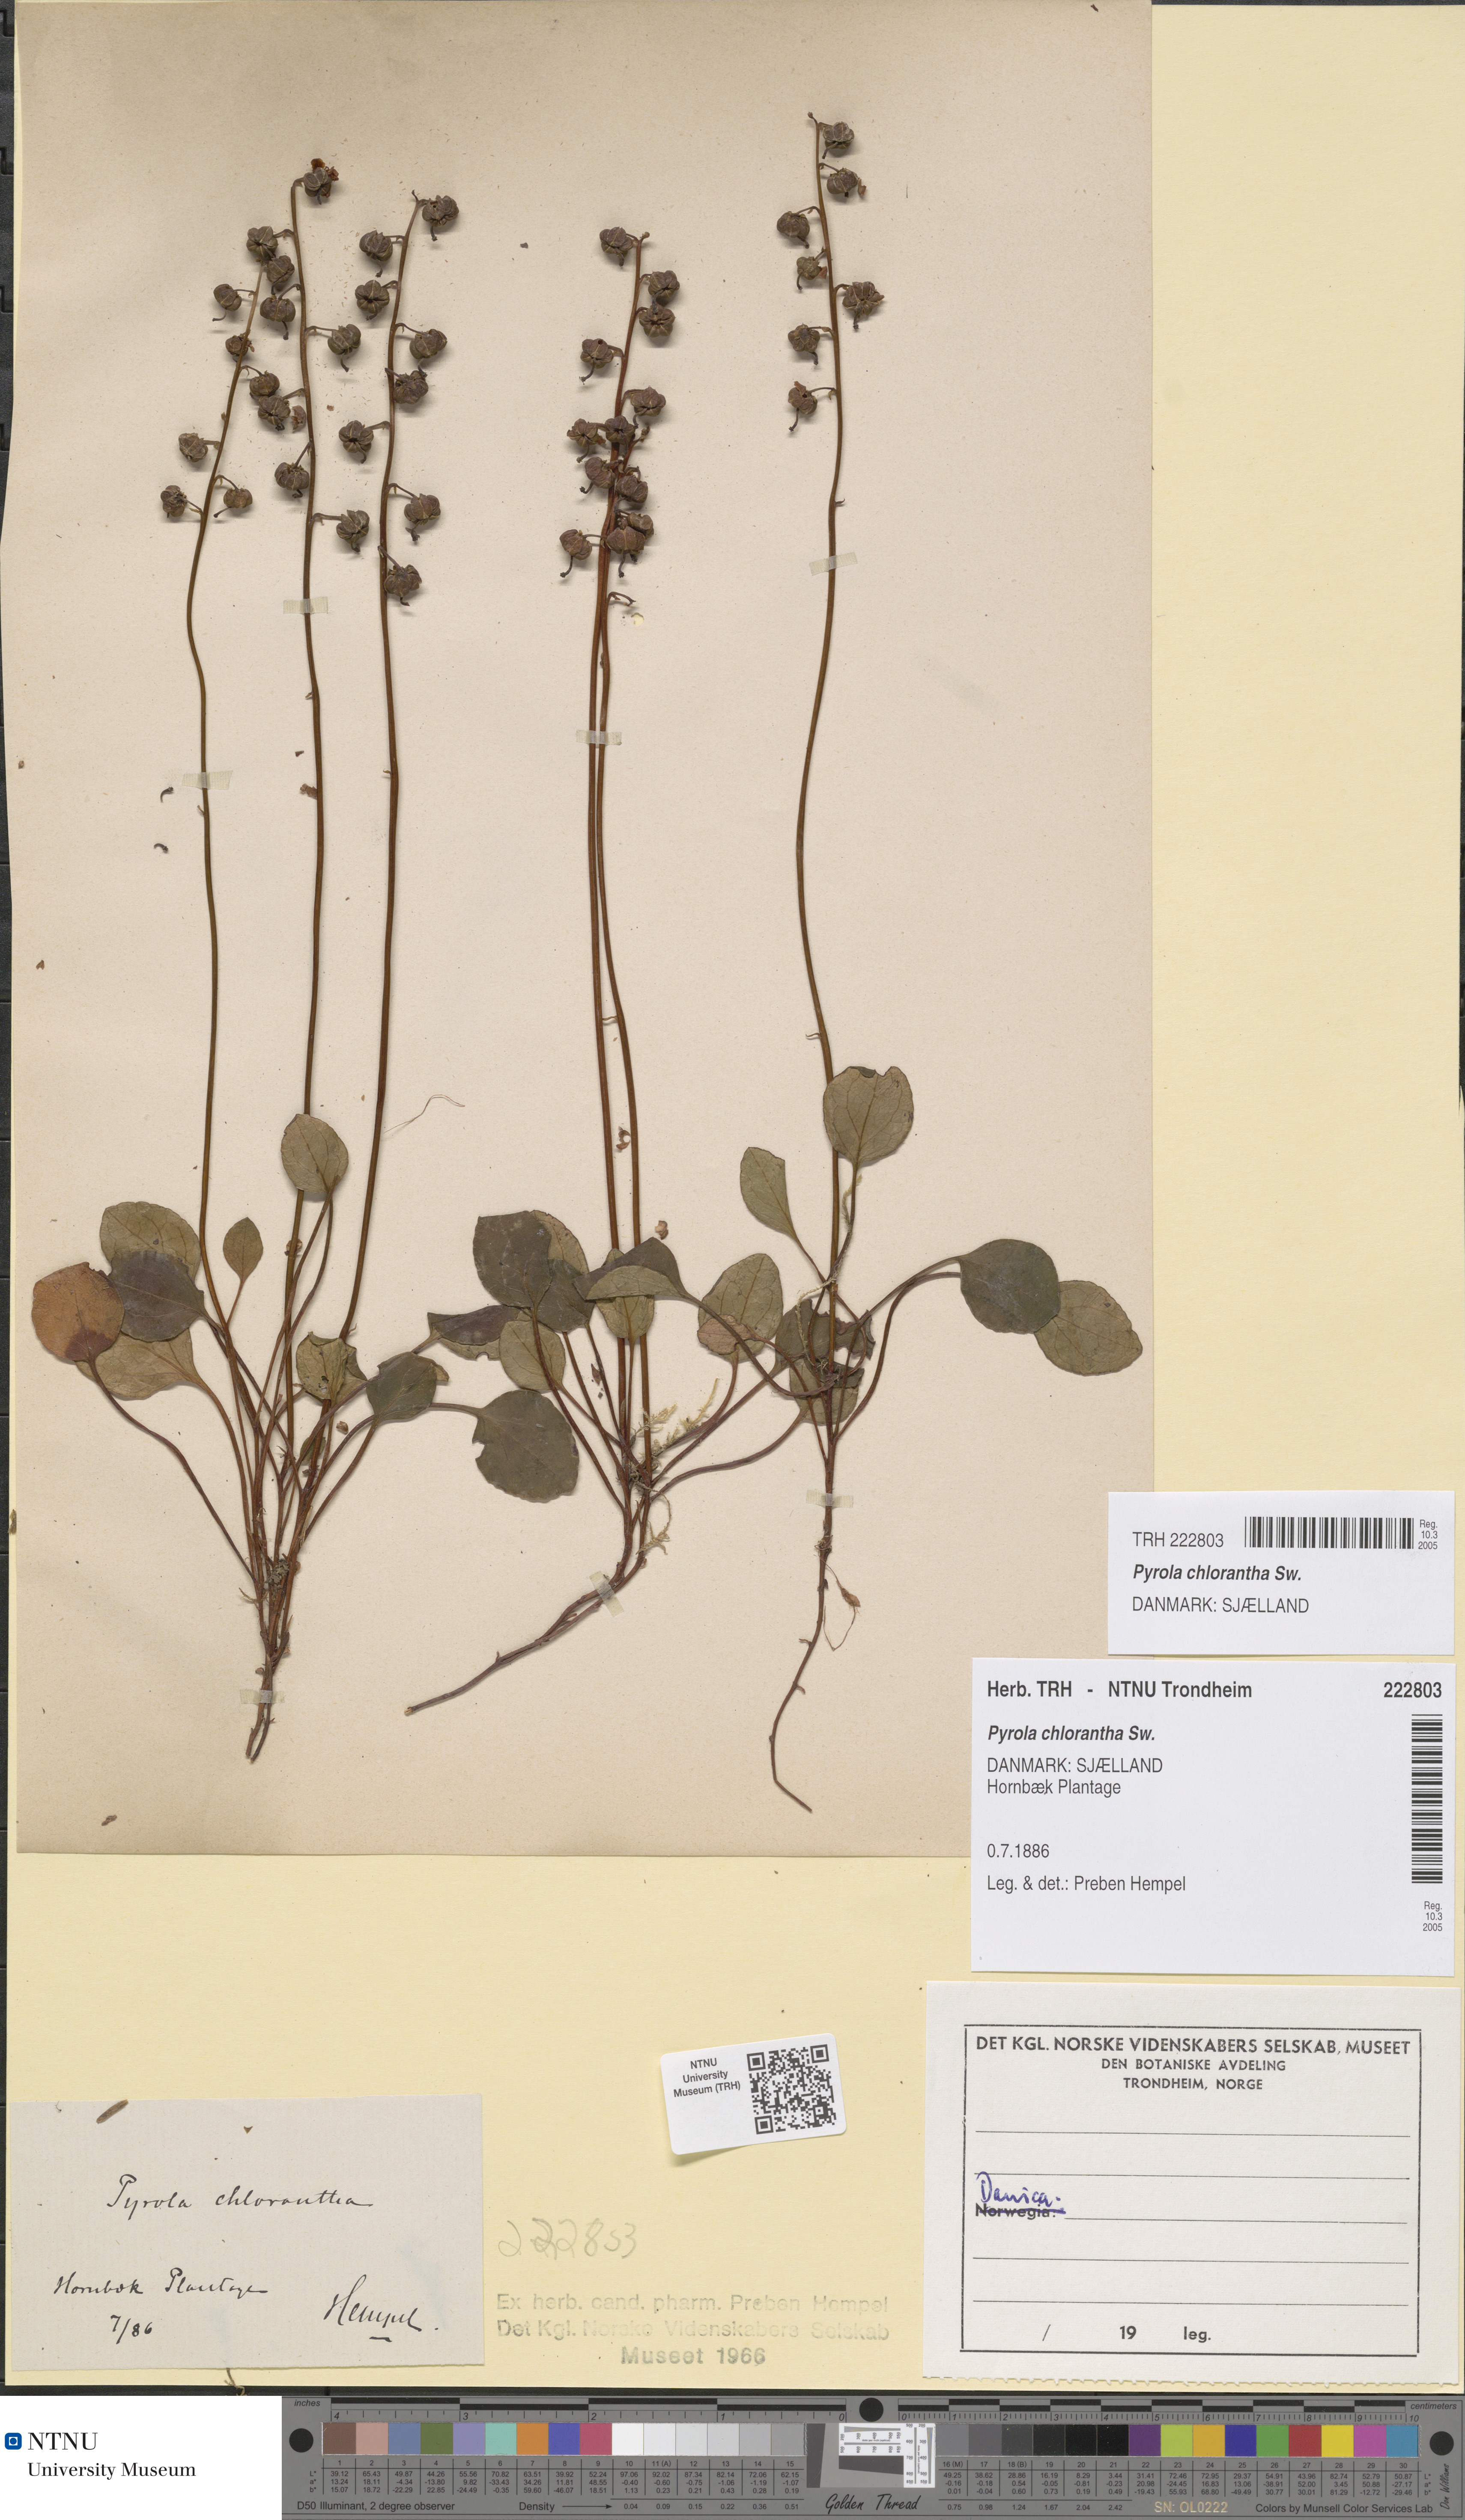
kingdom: Plantae
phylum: Tracheophyta
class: Magnoliopsida
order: Ericales
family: Ericaceae
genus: Pyrola
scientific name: Pyrola chlorantha
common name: Green wintergreen
